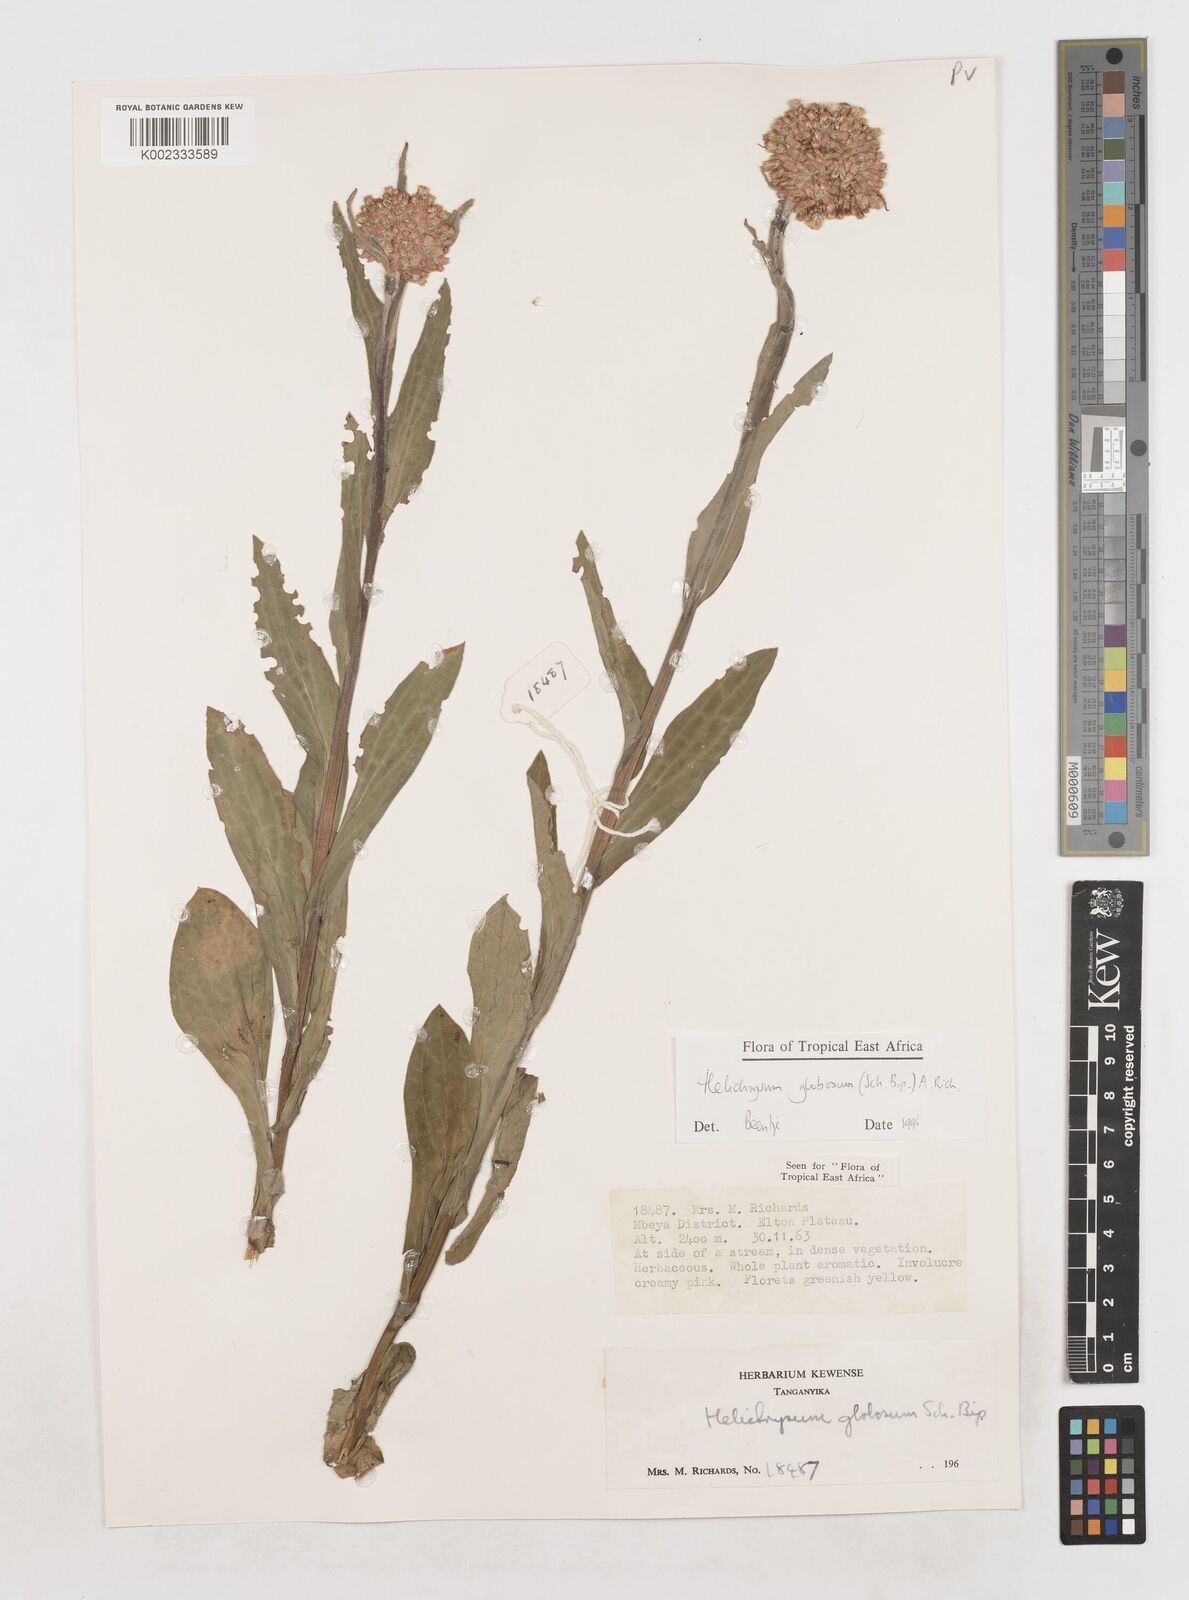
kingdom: Plantae
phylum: Tracheophyta
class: Magnoliopsida
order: Asterales
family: Asteraceae
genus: Helichrysum
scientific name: Helichrysum globosum
